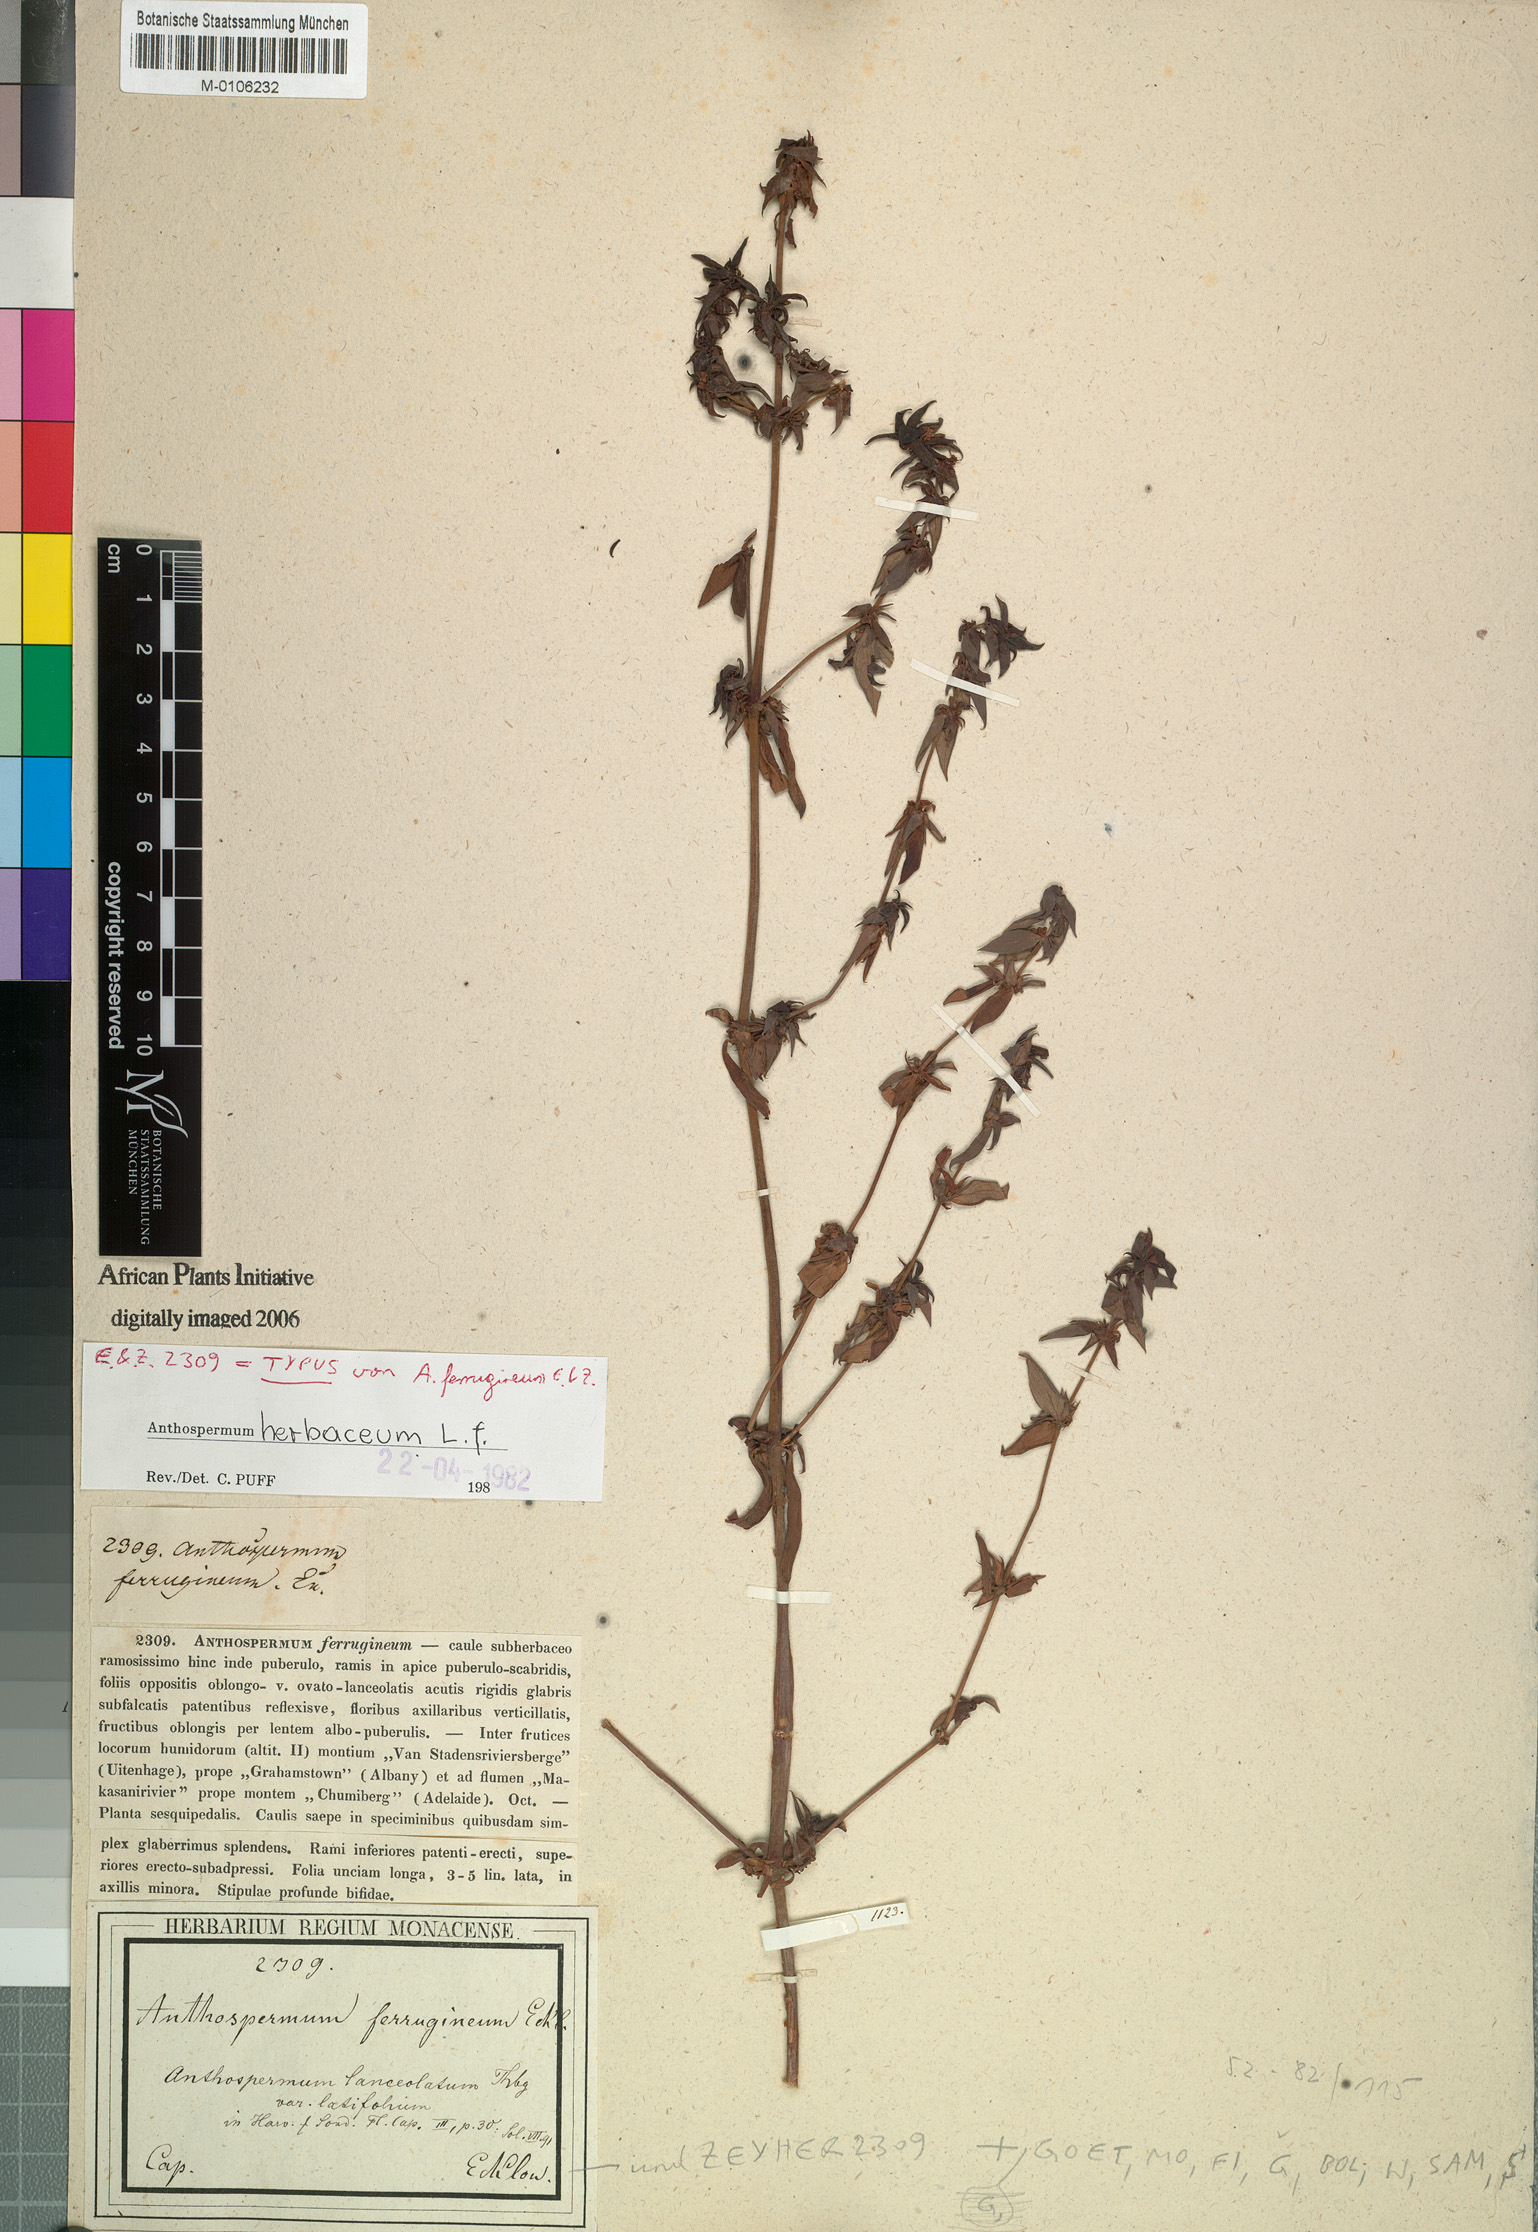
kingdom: Plantae
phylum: Tracheophyta
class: Magnoliopsida
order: Gentianales
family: Rubiaceae
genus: Anthospermum
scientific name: Anthospermum herbaceum
